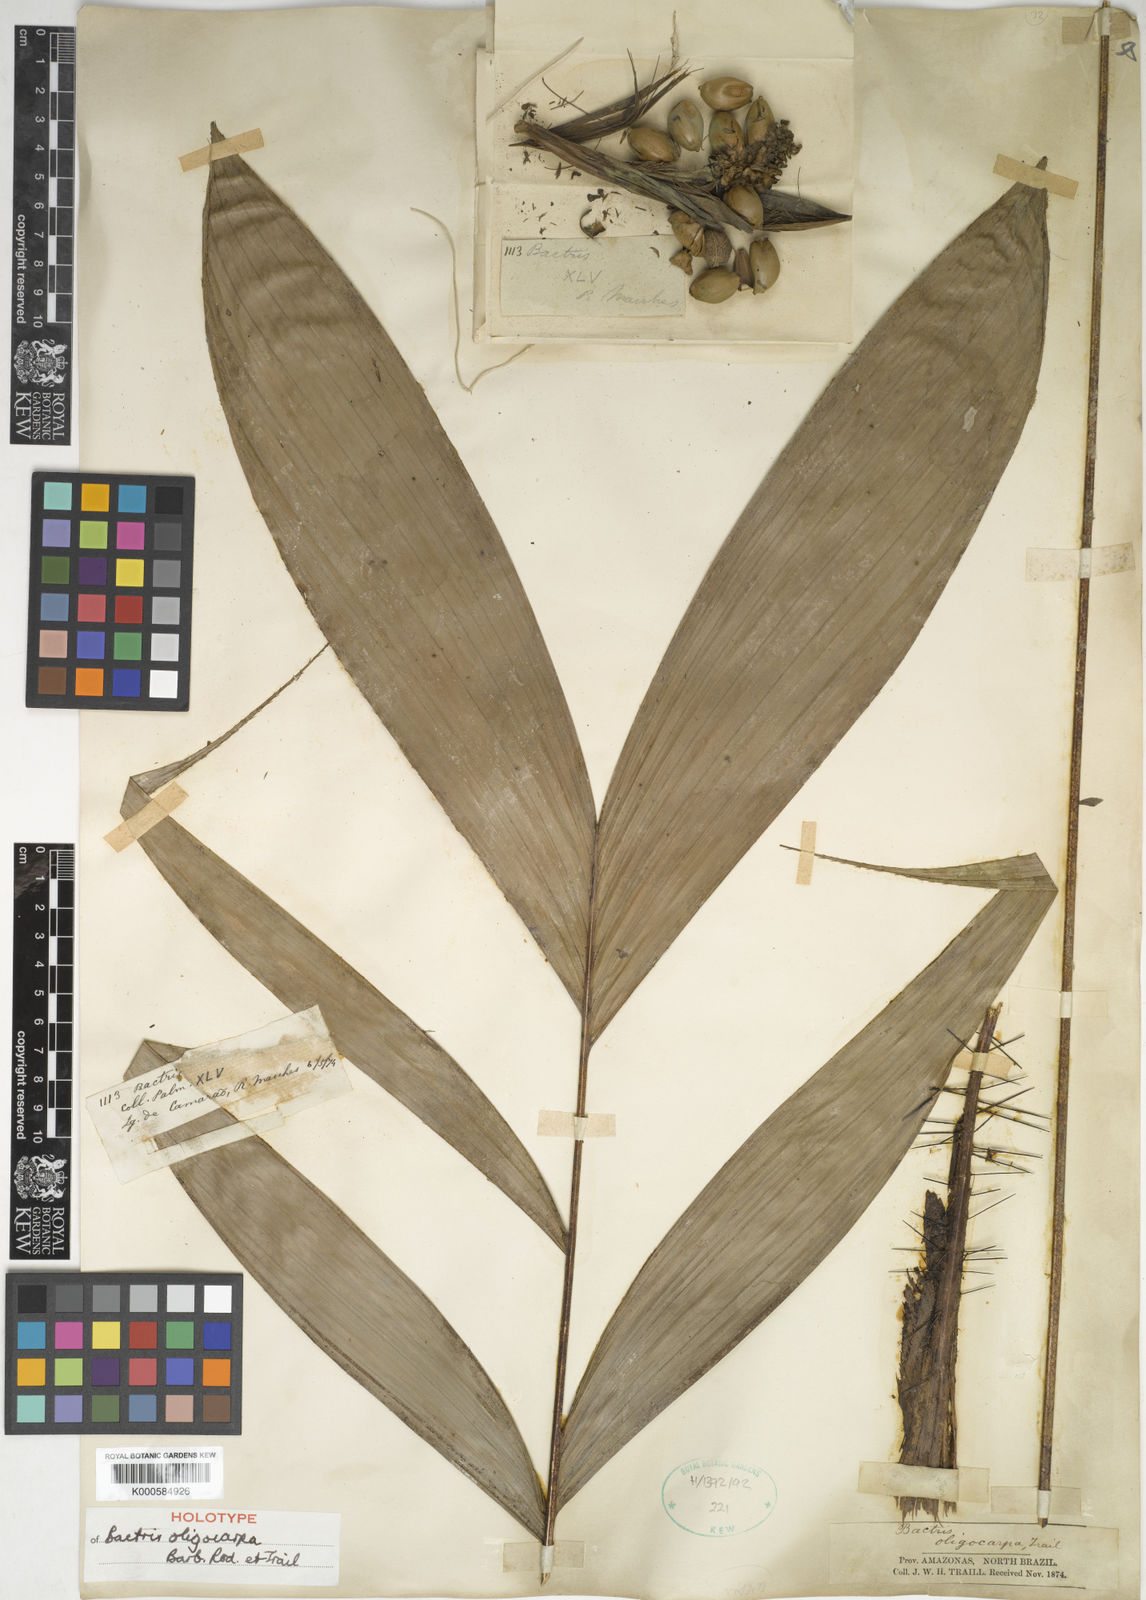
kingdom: Plantae
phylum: Tracheophyta
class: Liliopsida
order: Arecales
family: Arecaceae
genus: Bactris
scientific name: Bactris oligocarpa
